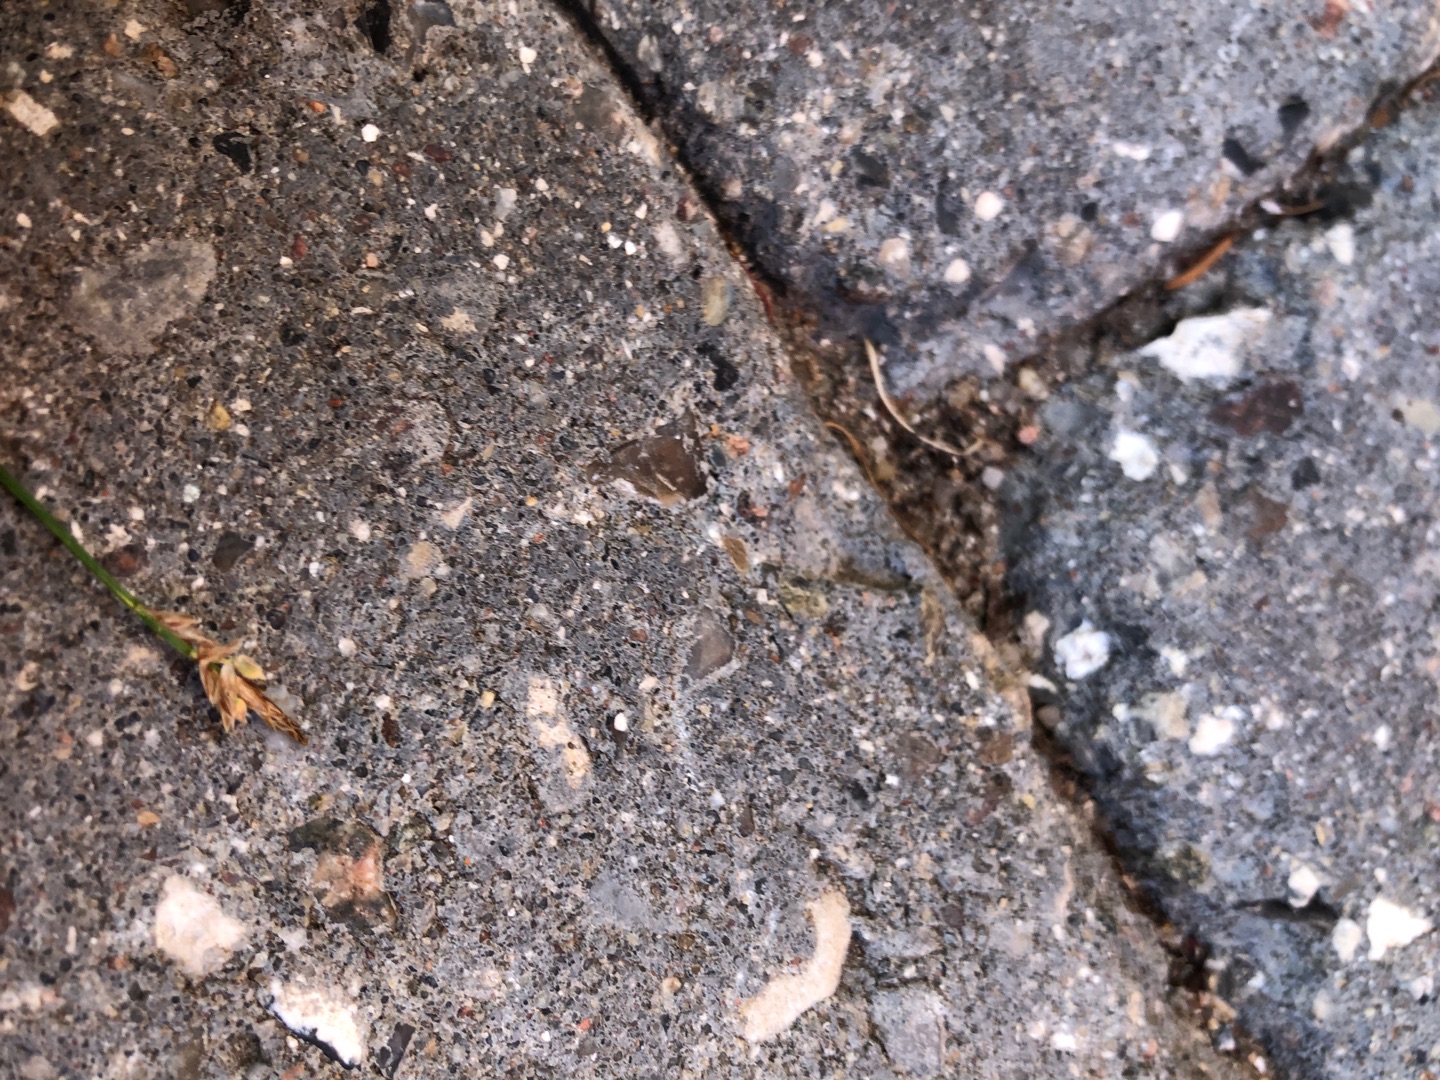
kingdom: Plantae
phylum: Tracheophyta
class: Liliopsida
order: Poales
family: Cyperaceae
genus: Carex
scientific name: Carex pilulifera
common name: Pille-star
